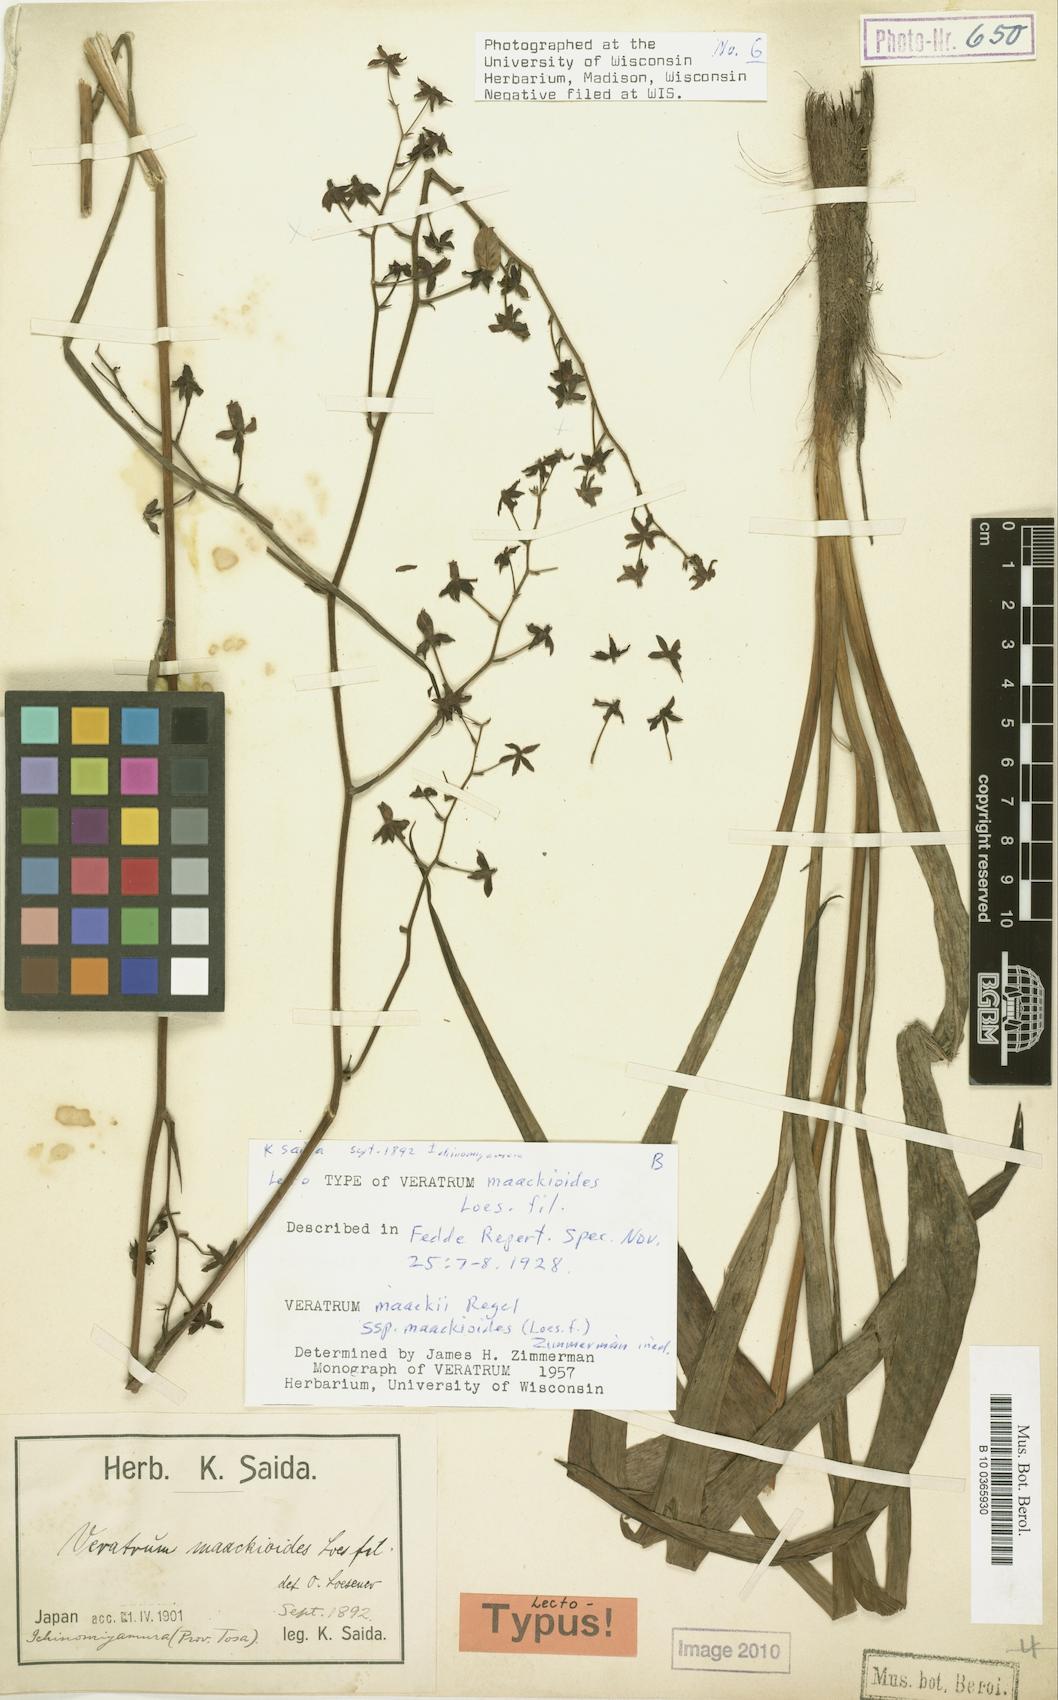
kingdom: Plantae
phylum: Tracheophyta
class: Liliopsida
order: Liliales
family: Melanthiaceae
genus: Veratrum
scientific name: Veratrum maackii
